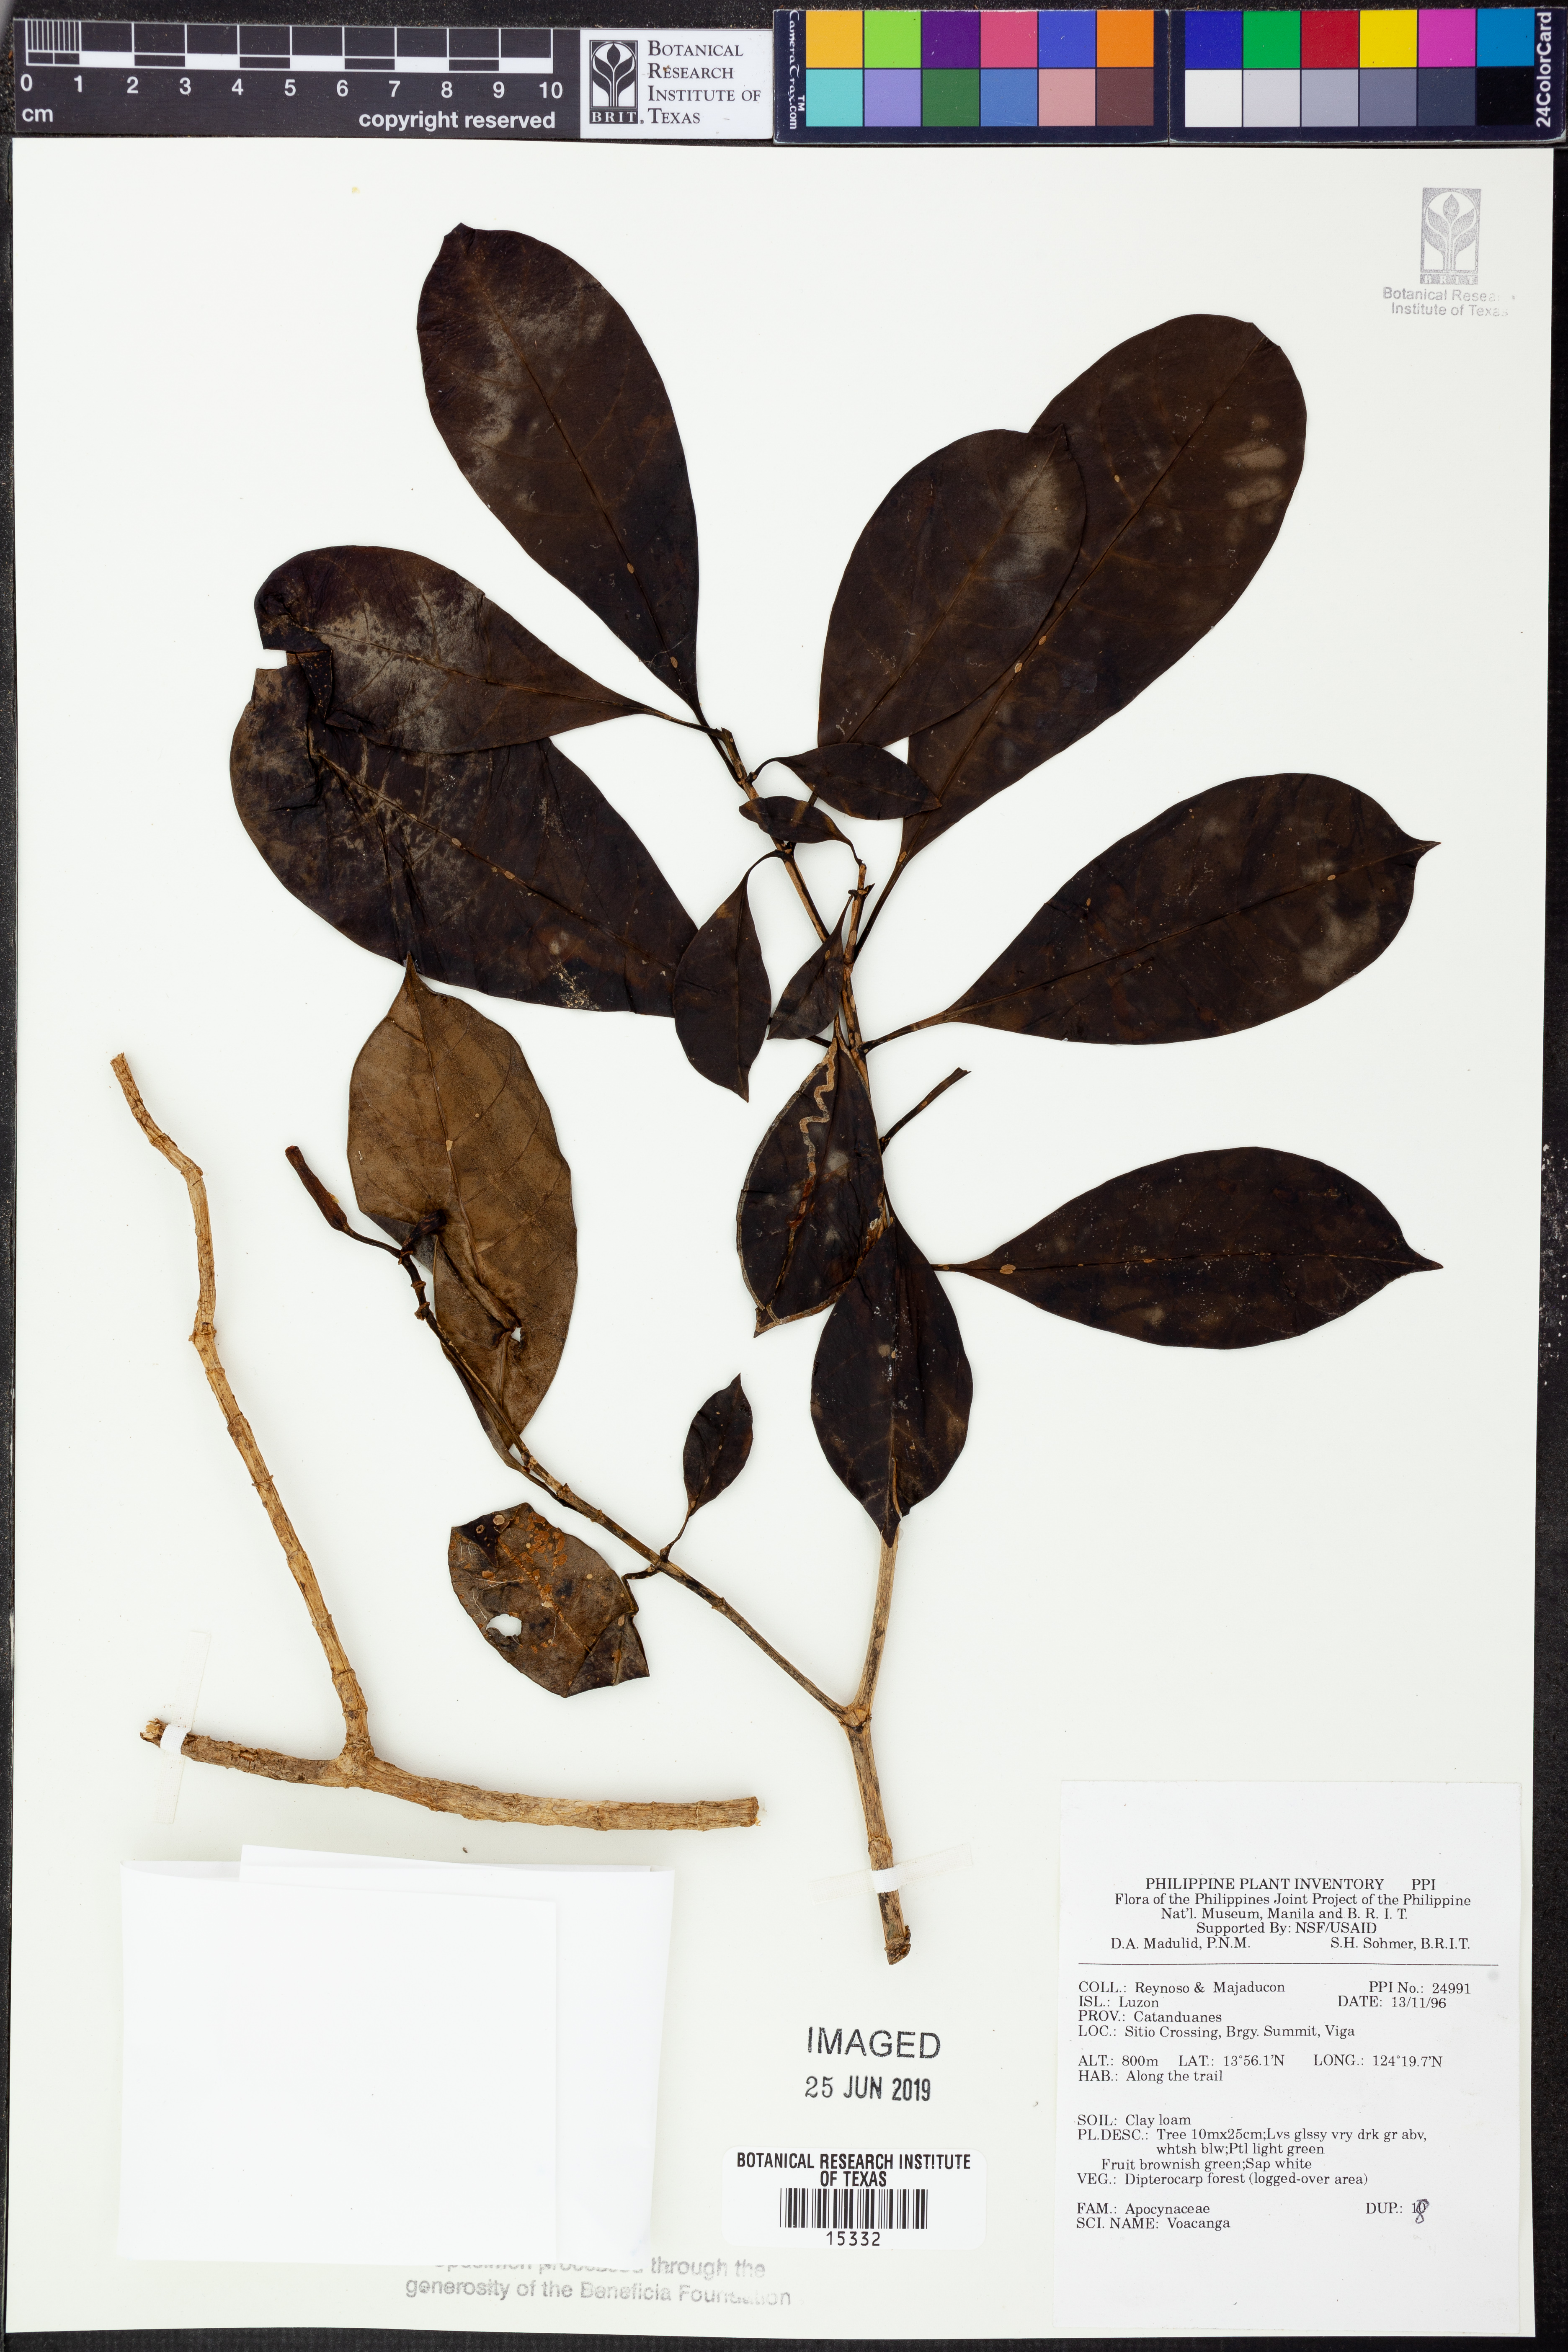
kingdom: Plantae
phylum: Tracheophyta
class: Magnoliopsida
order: Gentianales
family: Apocynaceae
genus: Voacanga
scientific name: Voacanga
